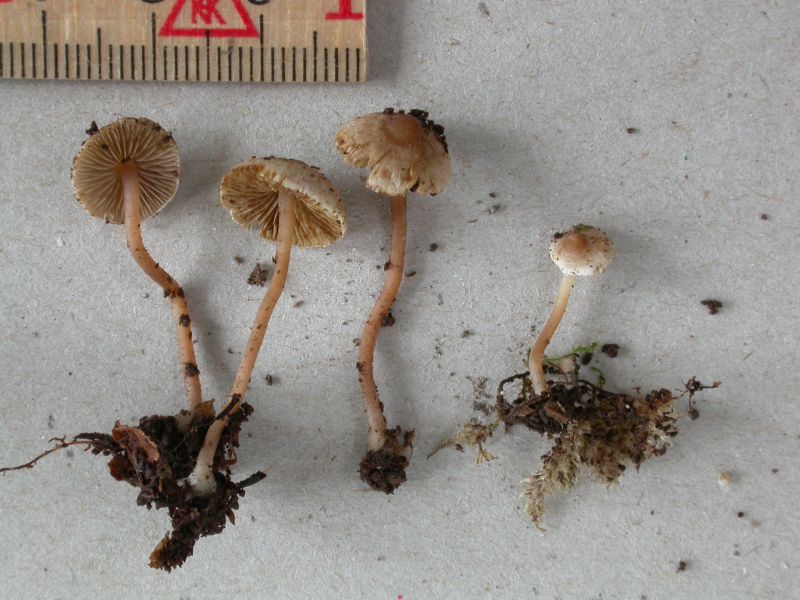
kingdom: Fungi
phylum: Basidiomycota
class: Agaricomycetes
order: Agaricales
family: Inocybaceae
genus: Inocybe
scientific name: Inocybe petiginosa
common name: liden trævlhat
